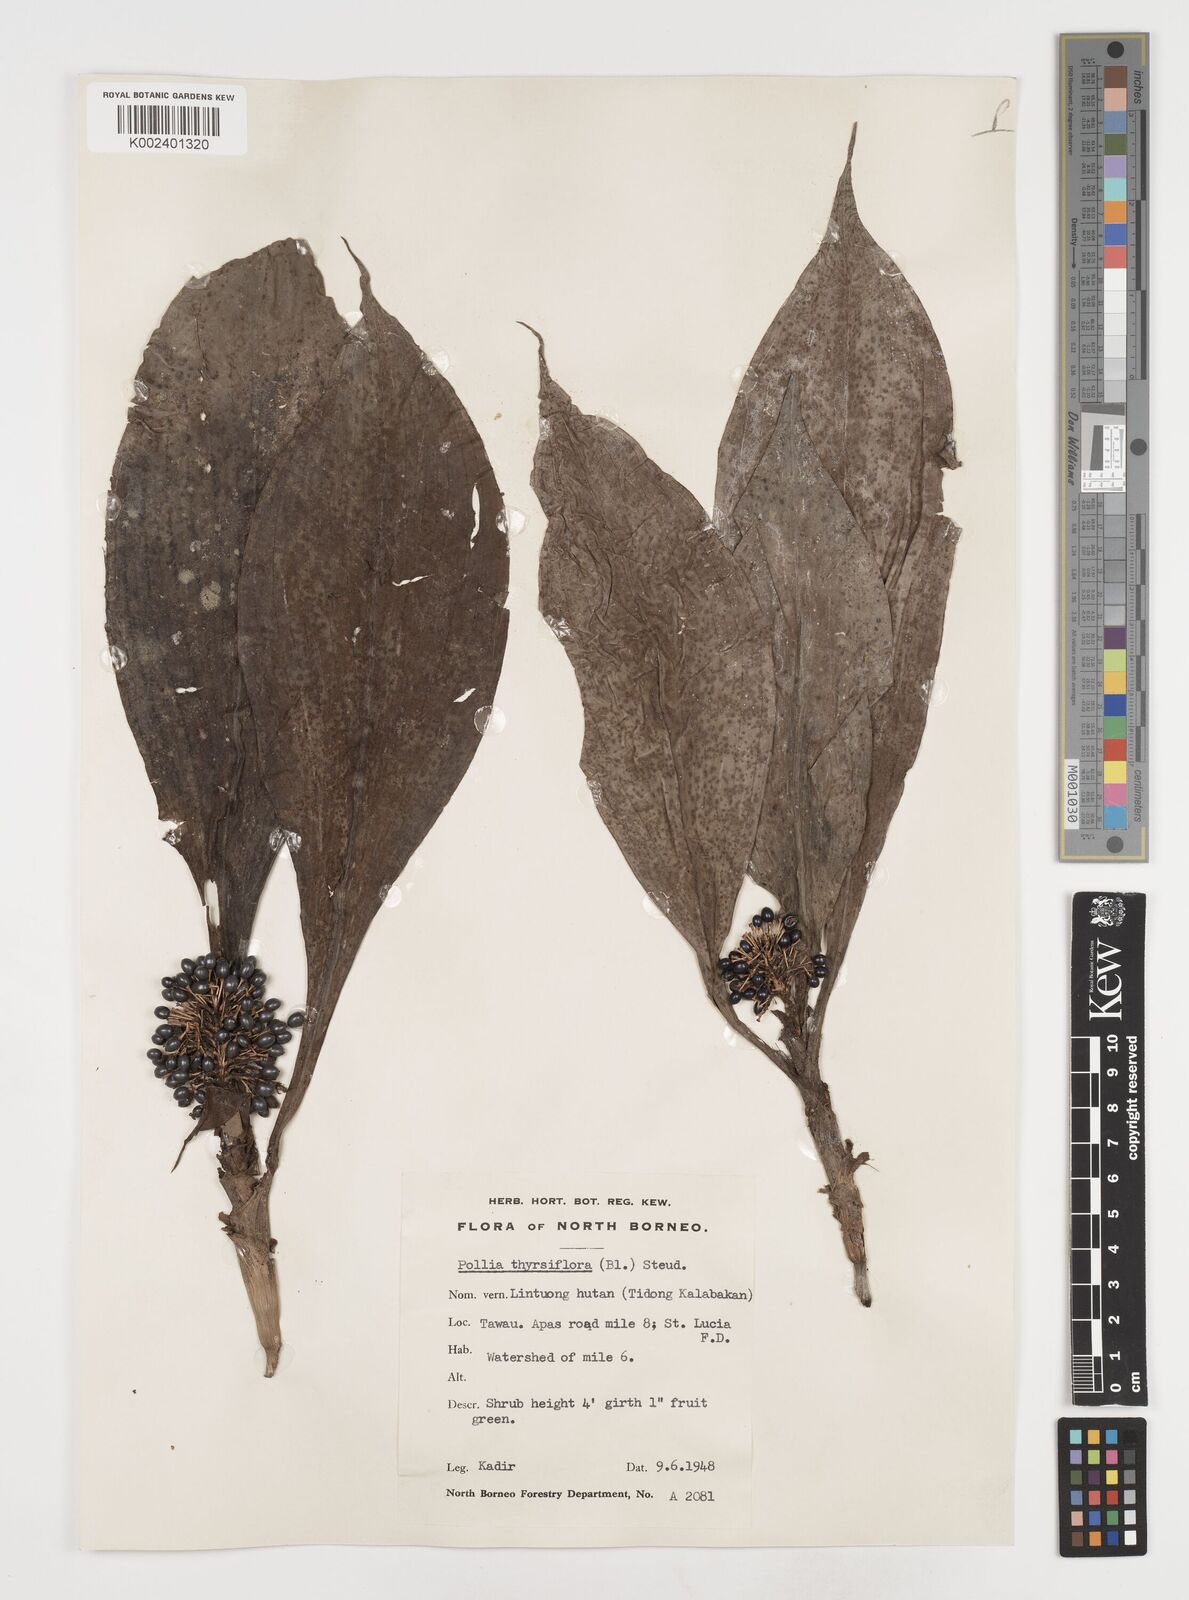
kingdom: Plantae
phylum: Tracheophyta
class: Liliopsida
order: Commelinales
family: Commelinaceae
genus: Pollia
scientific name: Pollia thyrsiflora
